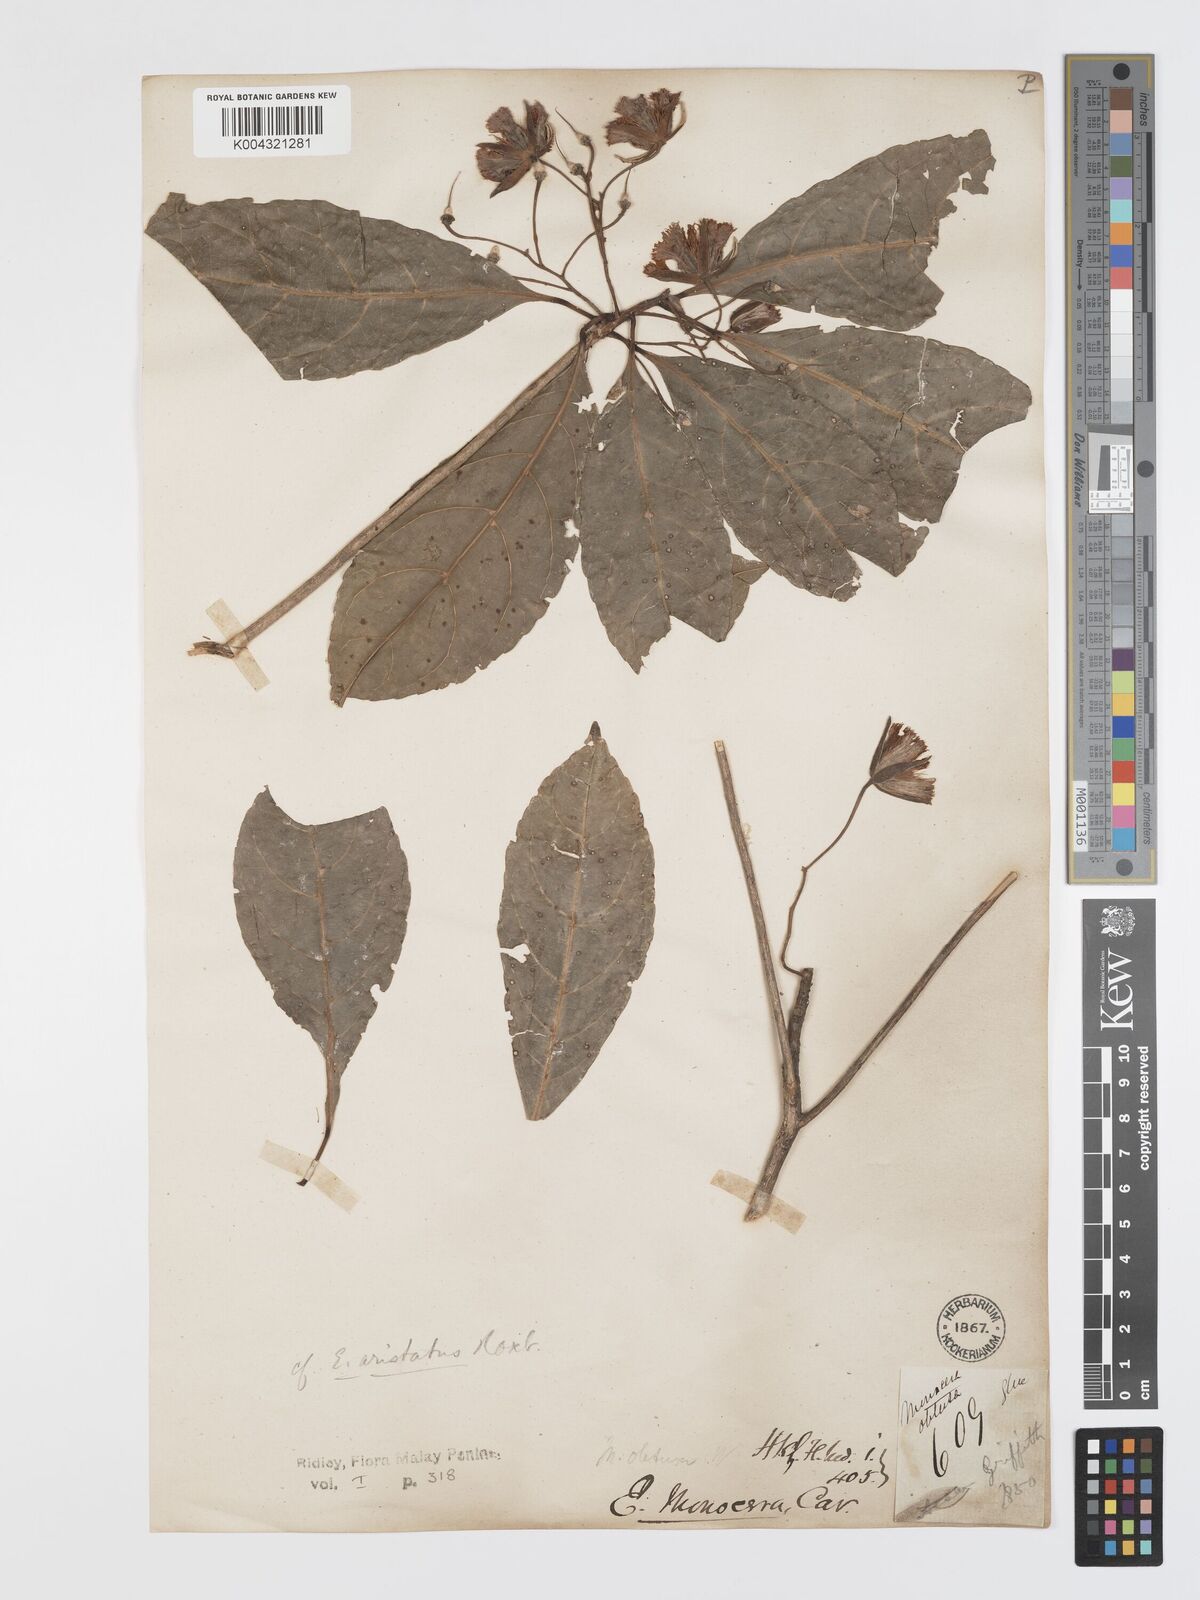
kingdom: Plantae
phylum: Tracheophyta
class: Magnoliopsida
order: Oxalidales
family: Elaeocarpaceae
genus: Elaeocarpus
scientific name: Elaeocarpus aristatus
